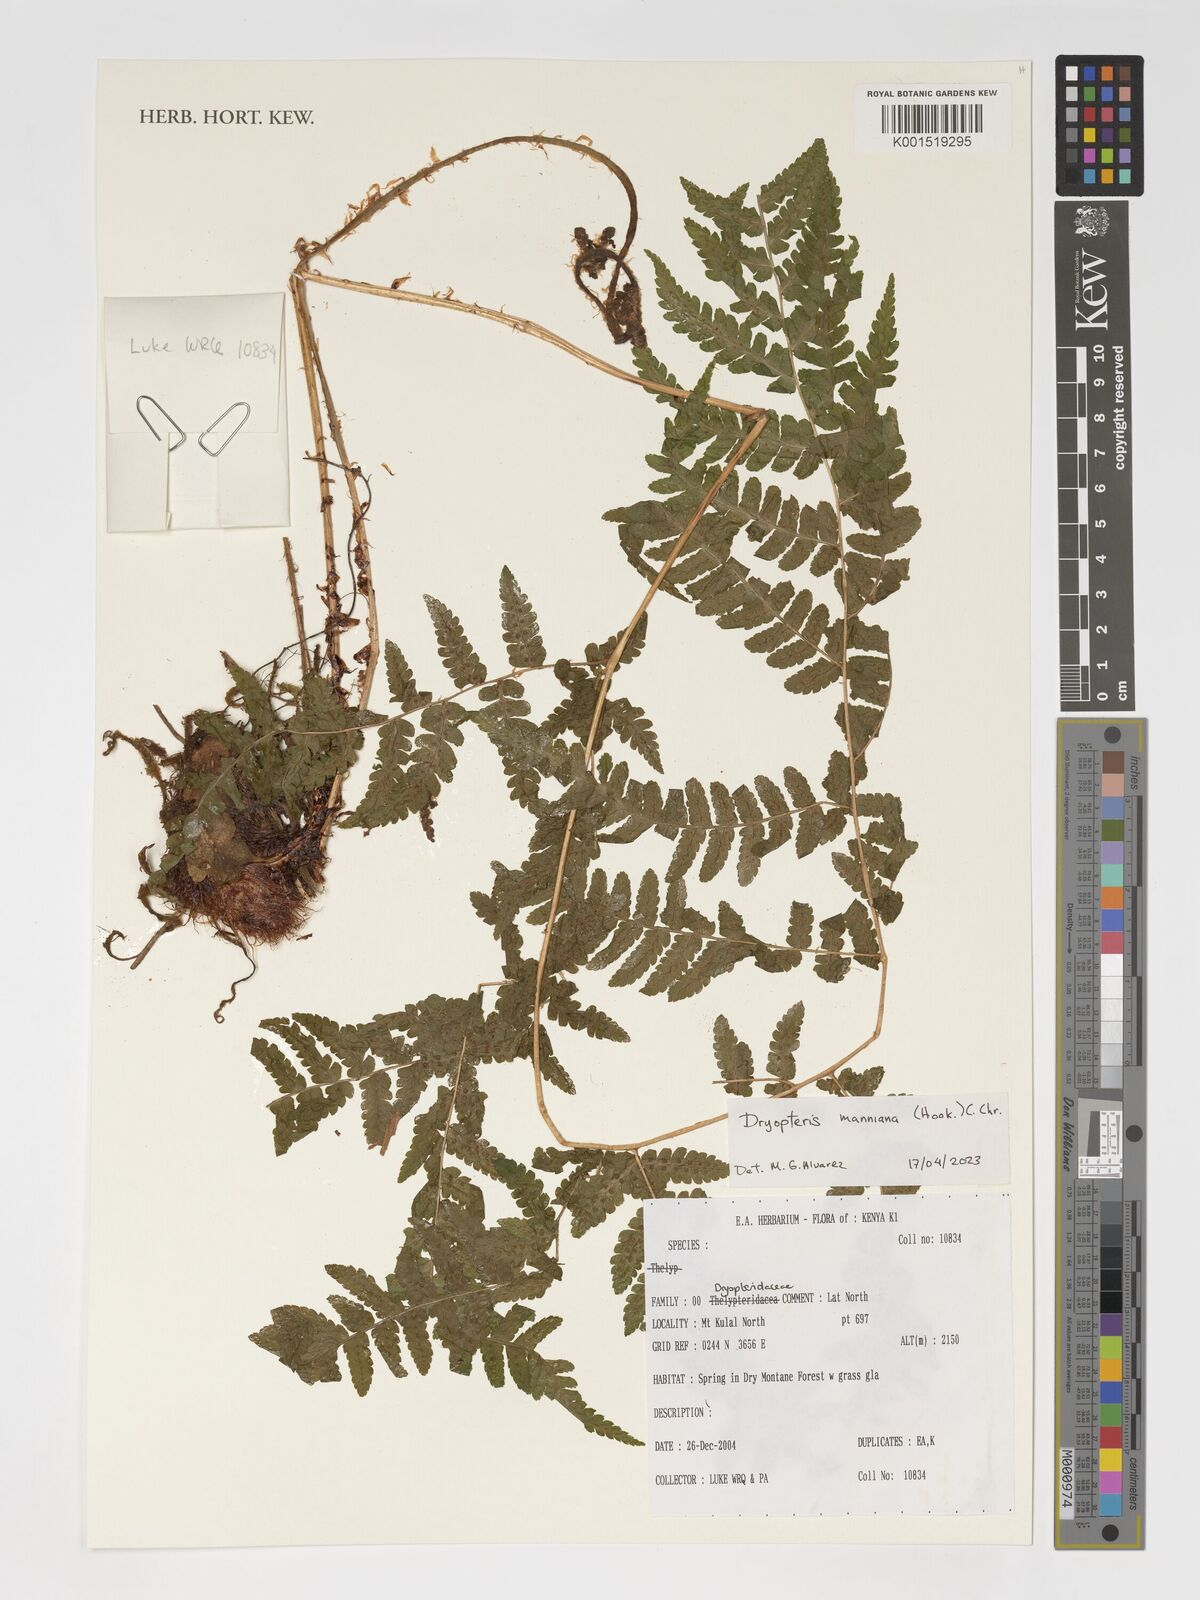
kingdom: Plantae
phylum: Tracheophyta
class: Polypodiopsida
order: Polypodiales
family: Dryopteridaceae
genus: Dryopteris
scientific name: Dryopteris manniana
